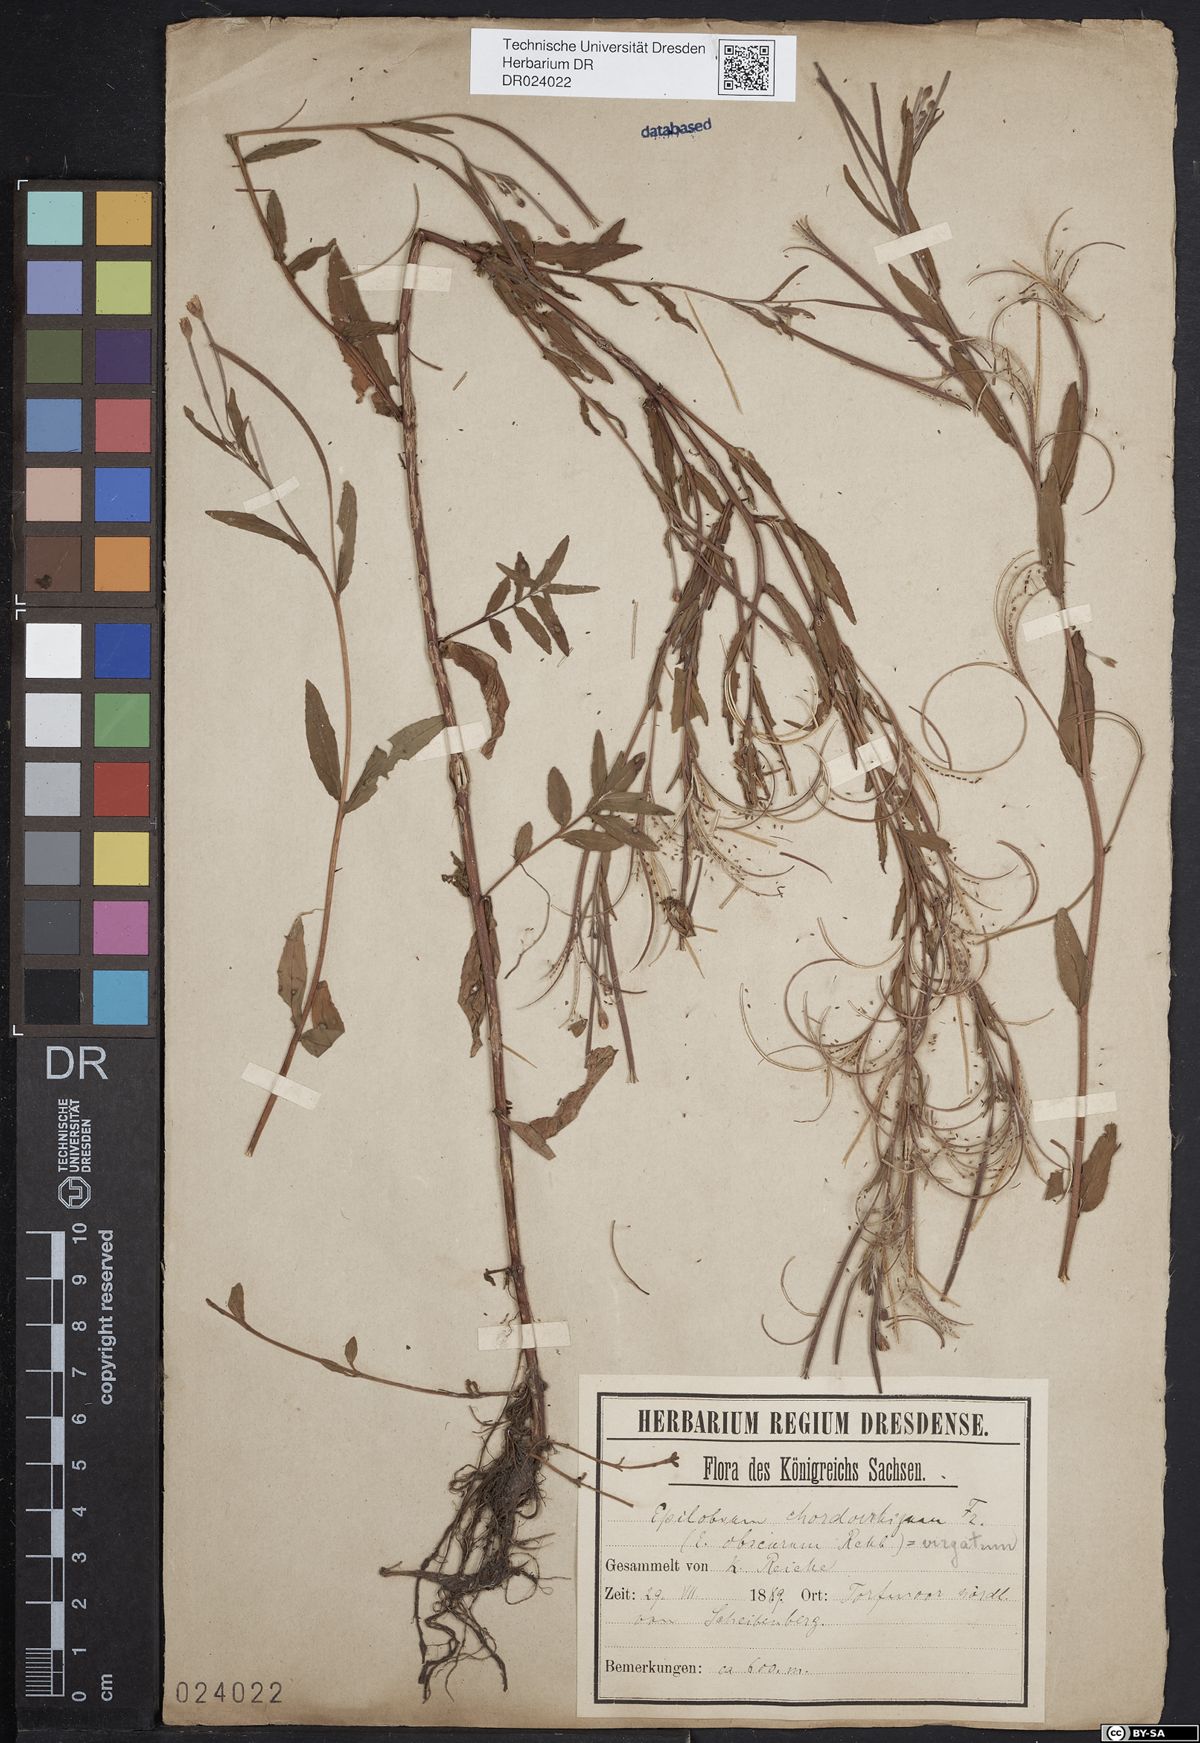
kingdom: Plantae
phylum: Tracheophyta
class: Magnoliopsida
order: Myrtales
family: Onagraceae
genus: Epilobium
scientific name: Epilobium obscurum
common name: Short-fruited willowherb
